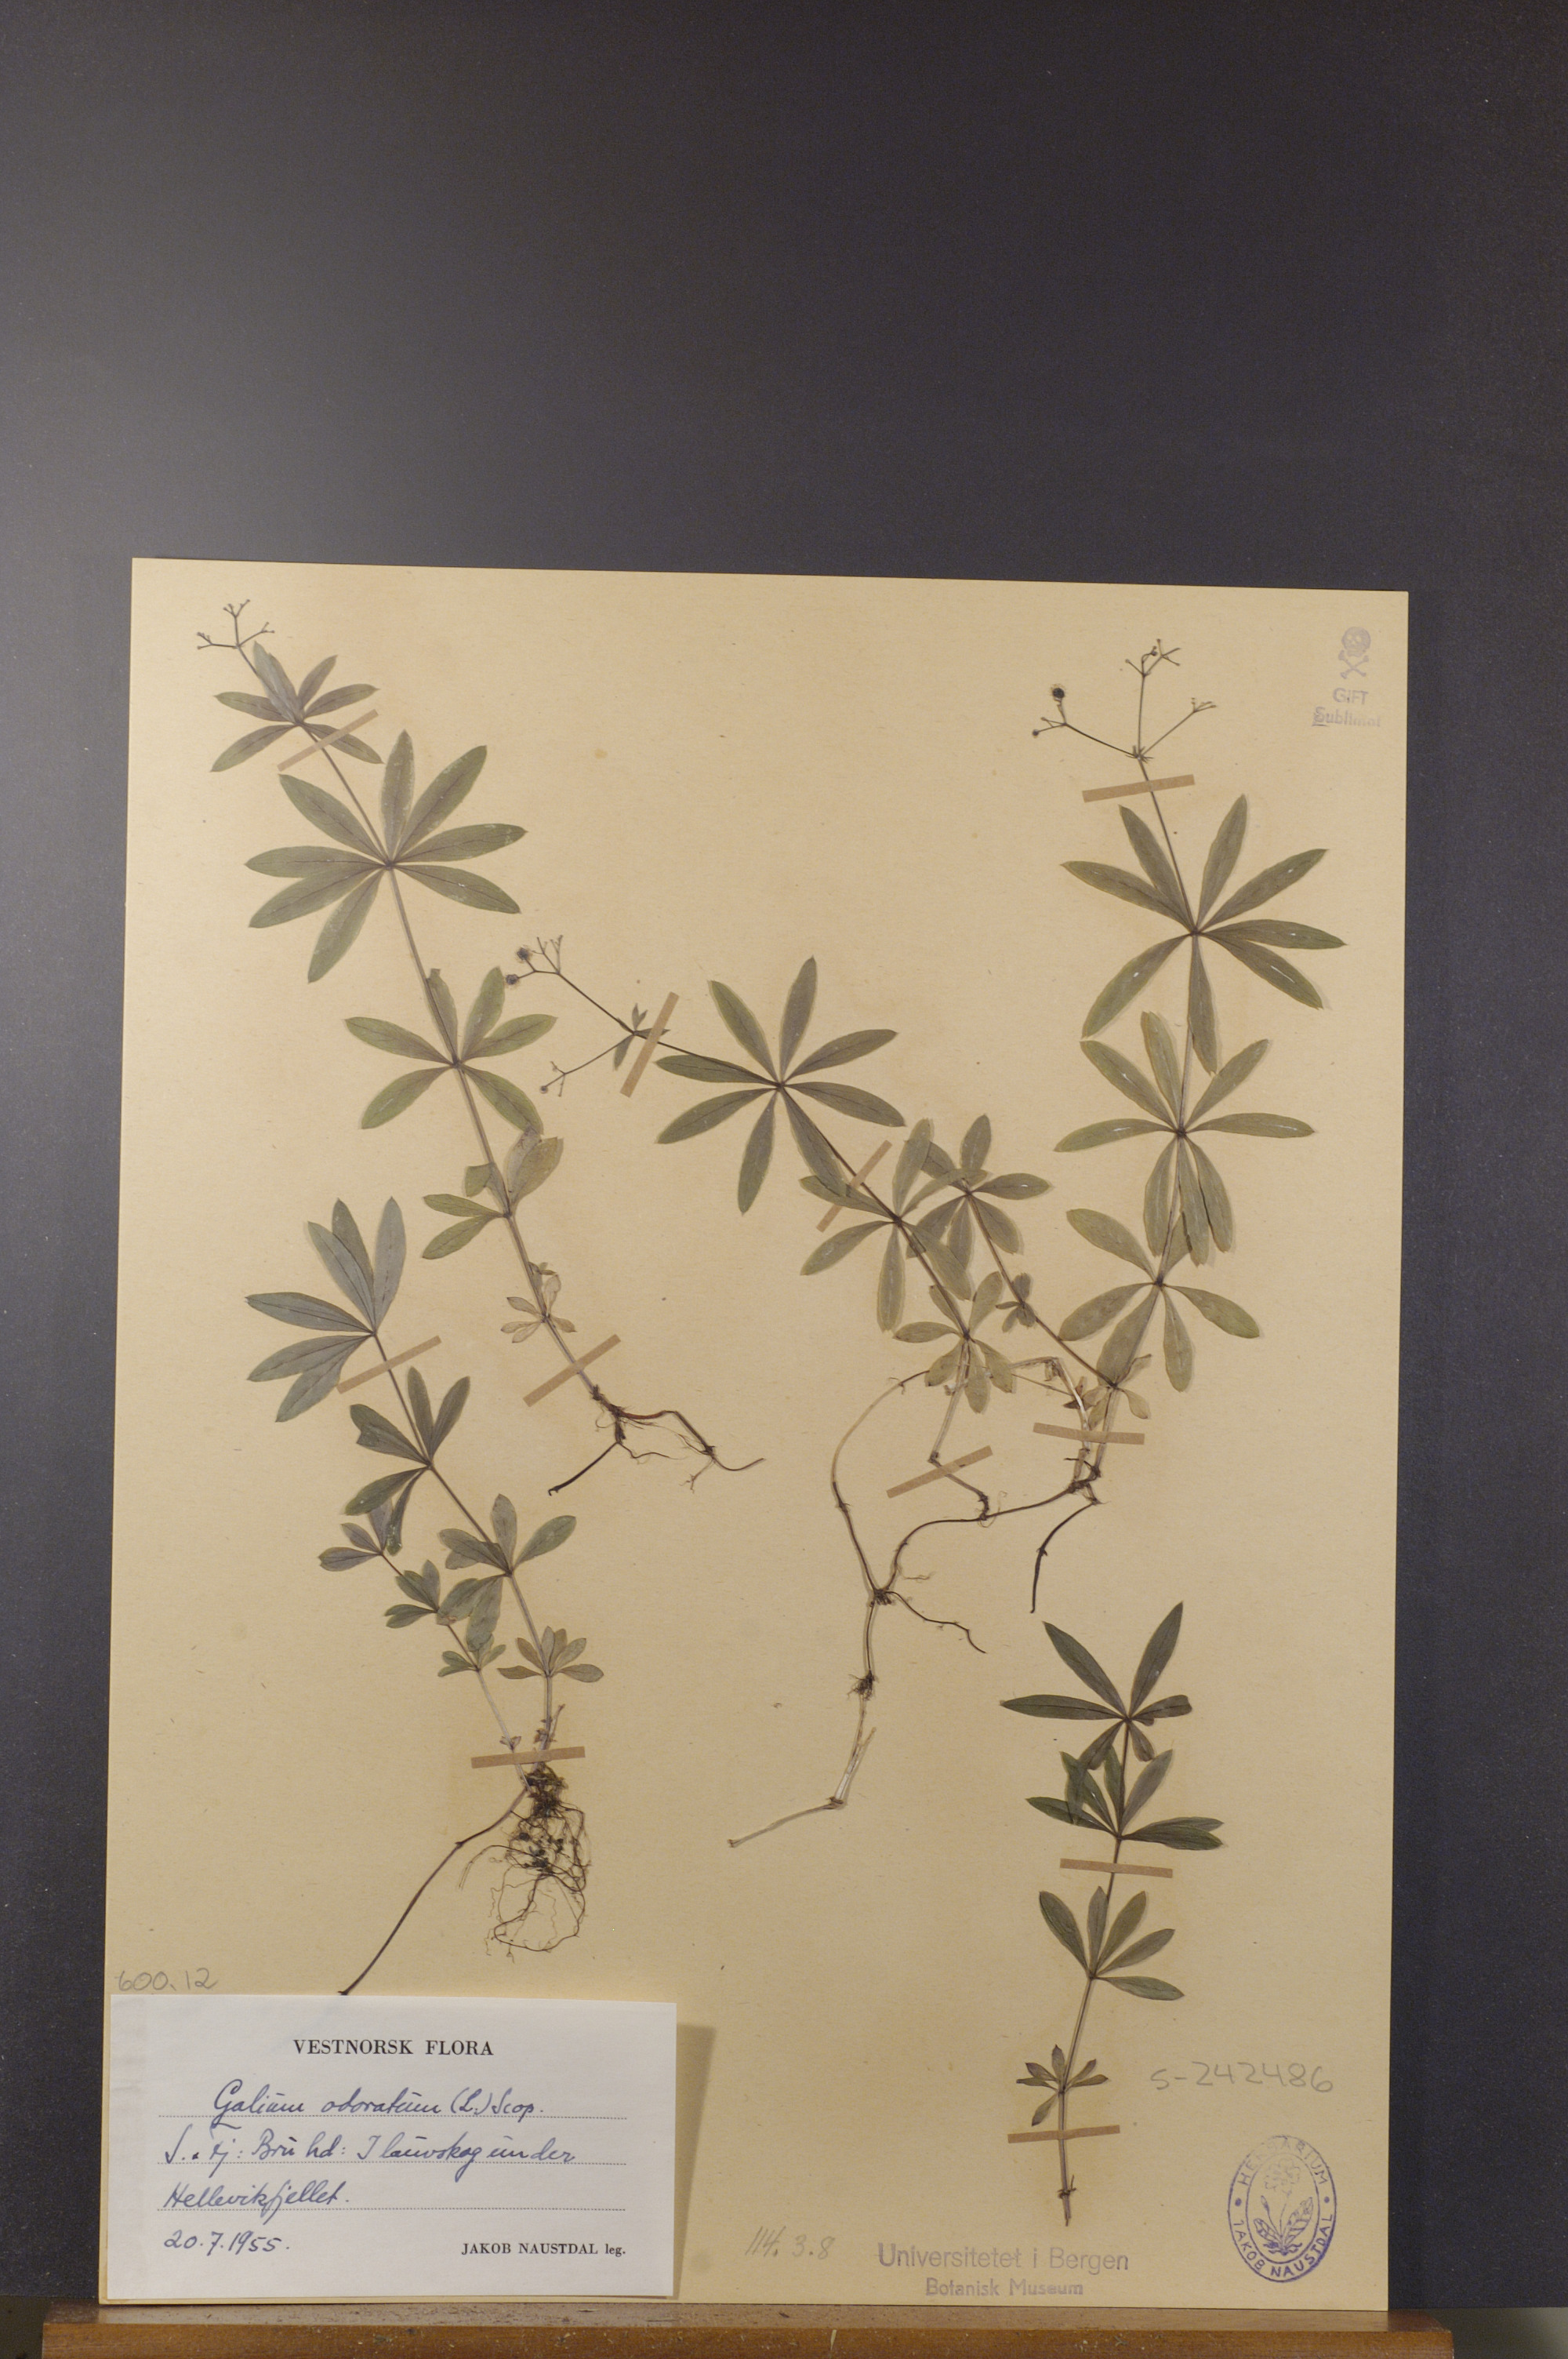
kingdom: Plantae
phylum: Tracheophyta
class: Magnoliopsida
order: Gentianales
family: Rubiaceae
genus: Galium
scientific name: Galium odoratum
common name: Sweet woodruff
